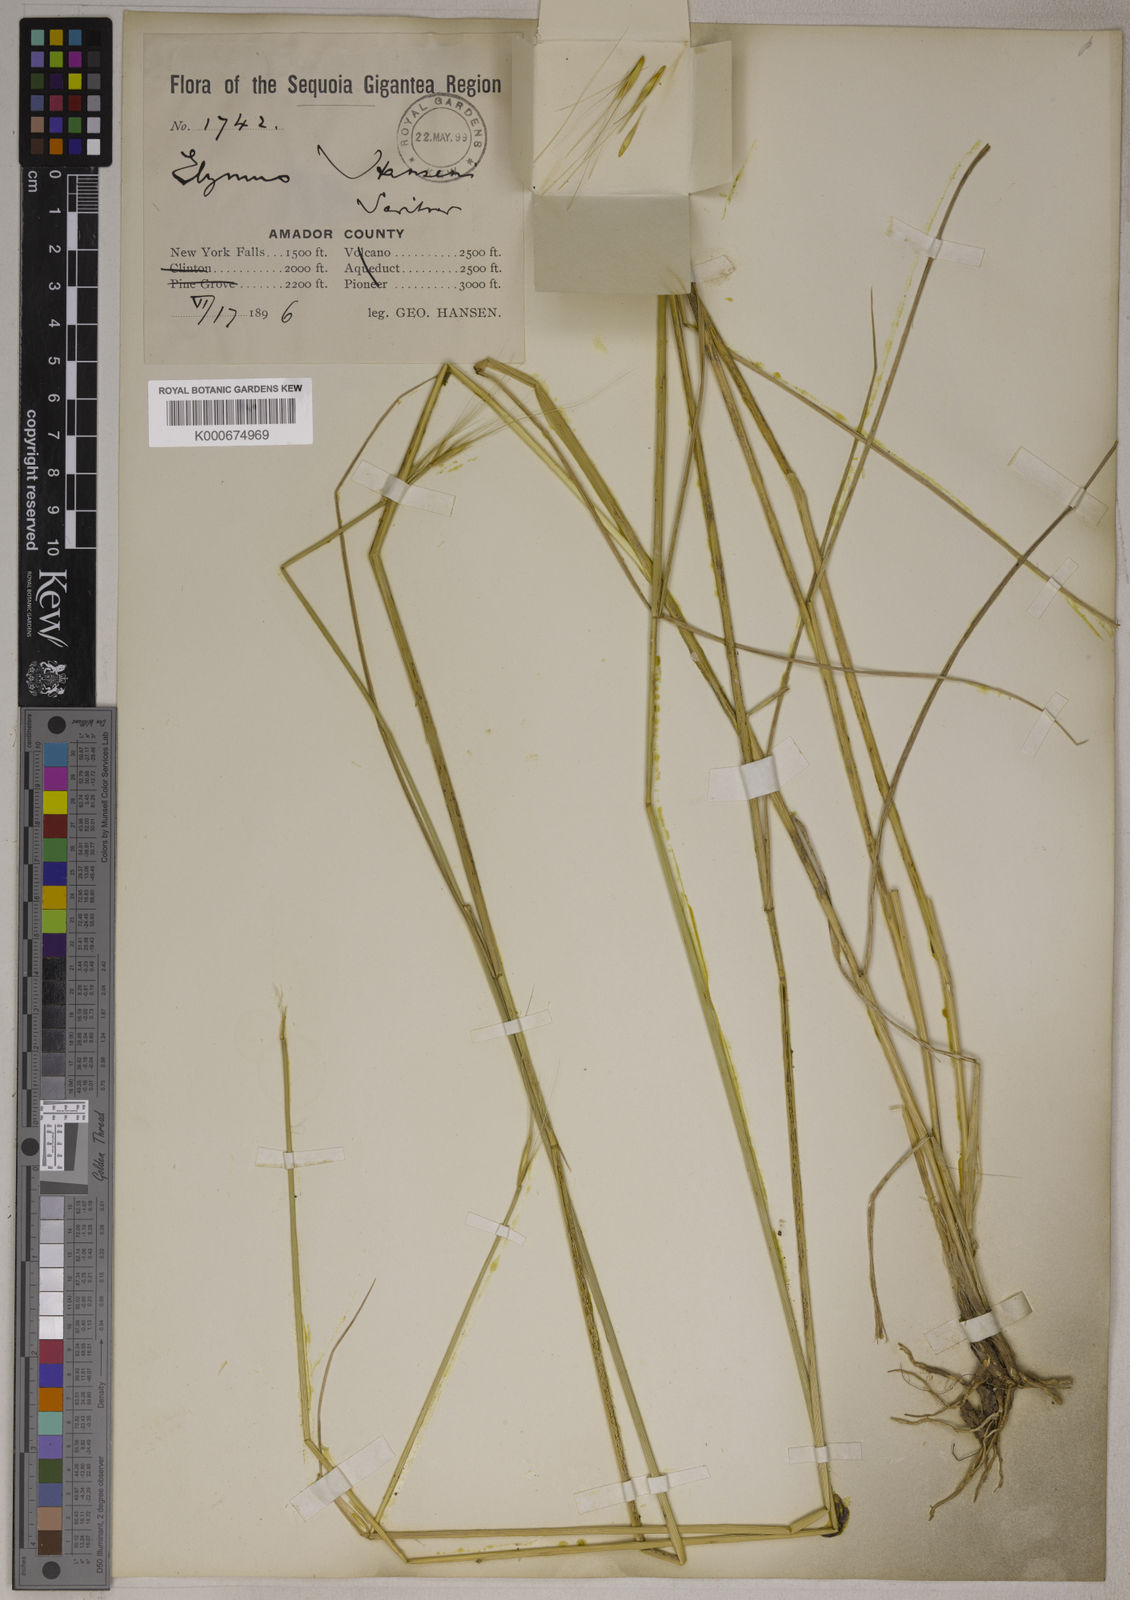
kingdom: Plantae
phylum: Tracheophyta
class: Liliopsida
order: Poales
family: Poaceae
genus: Elymus
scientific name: Elymus hansenii
